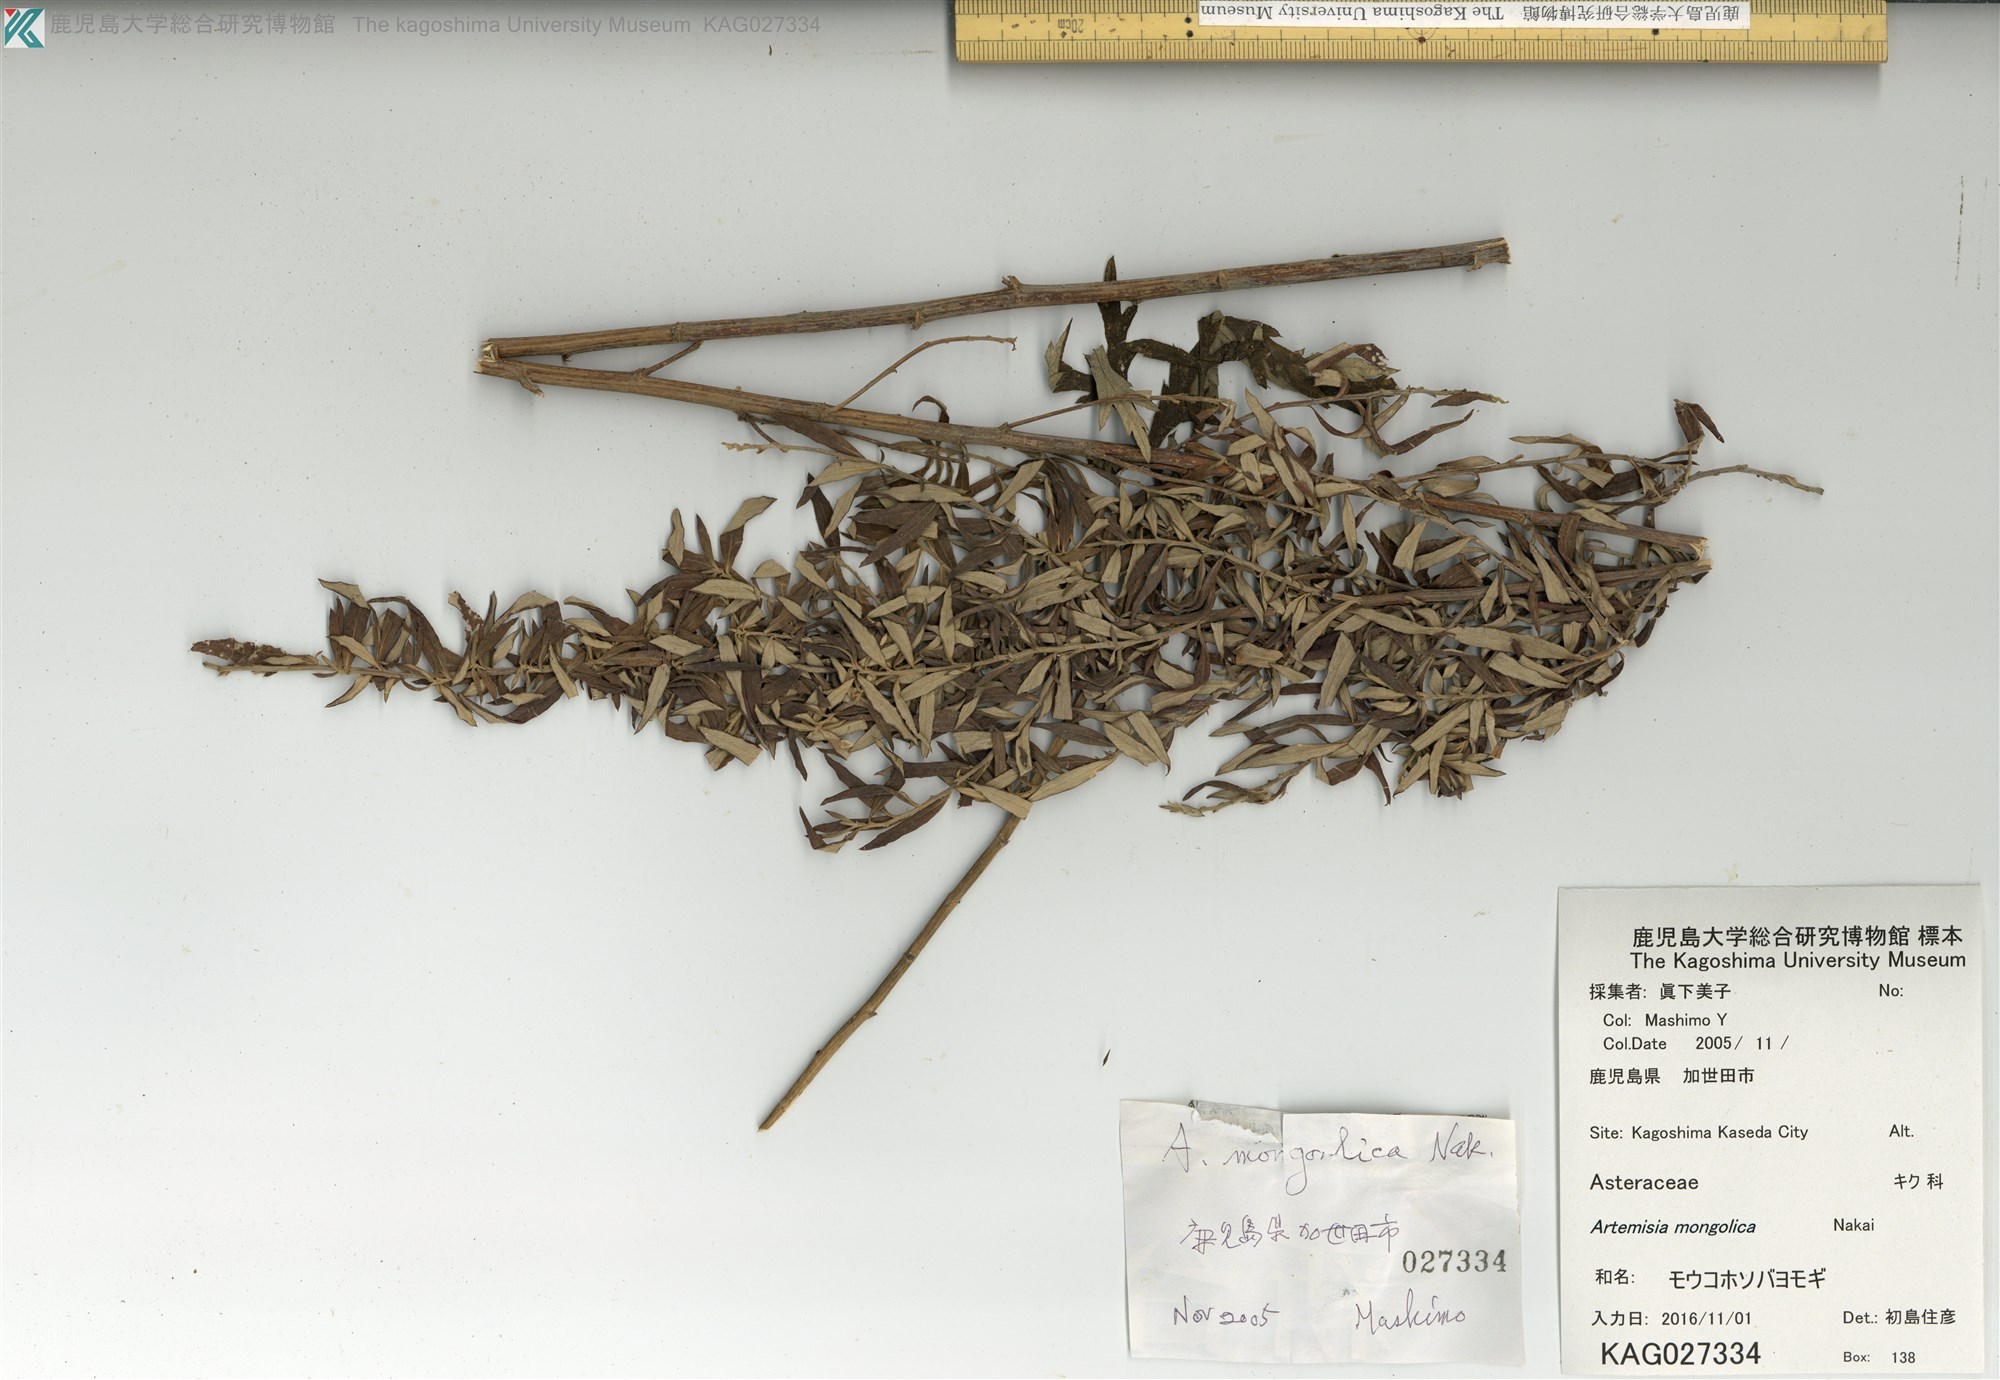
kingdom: Plantae
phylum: Tracheophyta
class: Magnoliopsida
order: Asterales
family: Asteraceae
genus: Artemisia
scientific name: Artemisia mongolica
